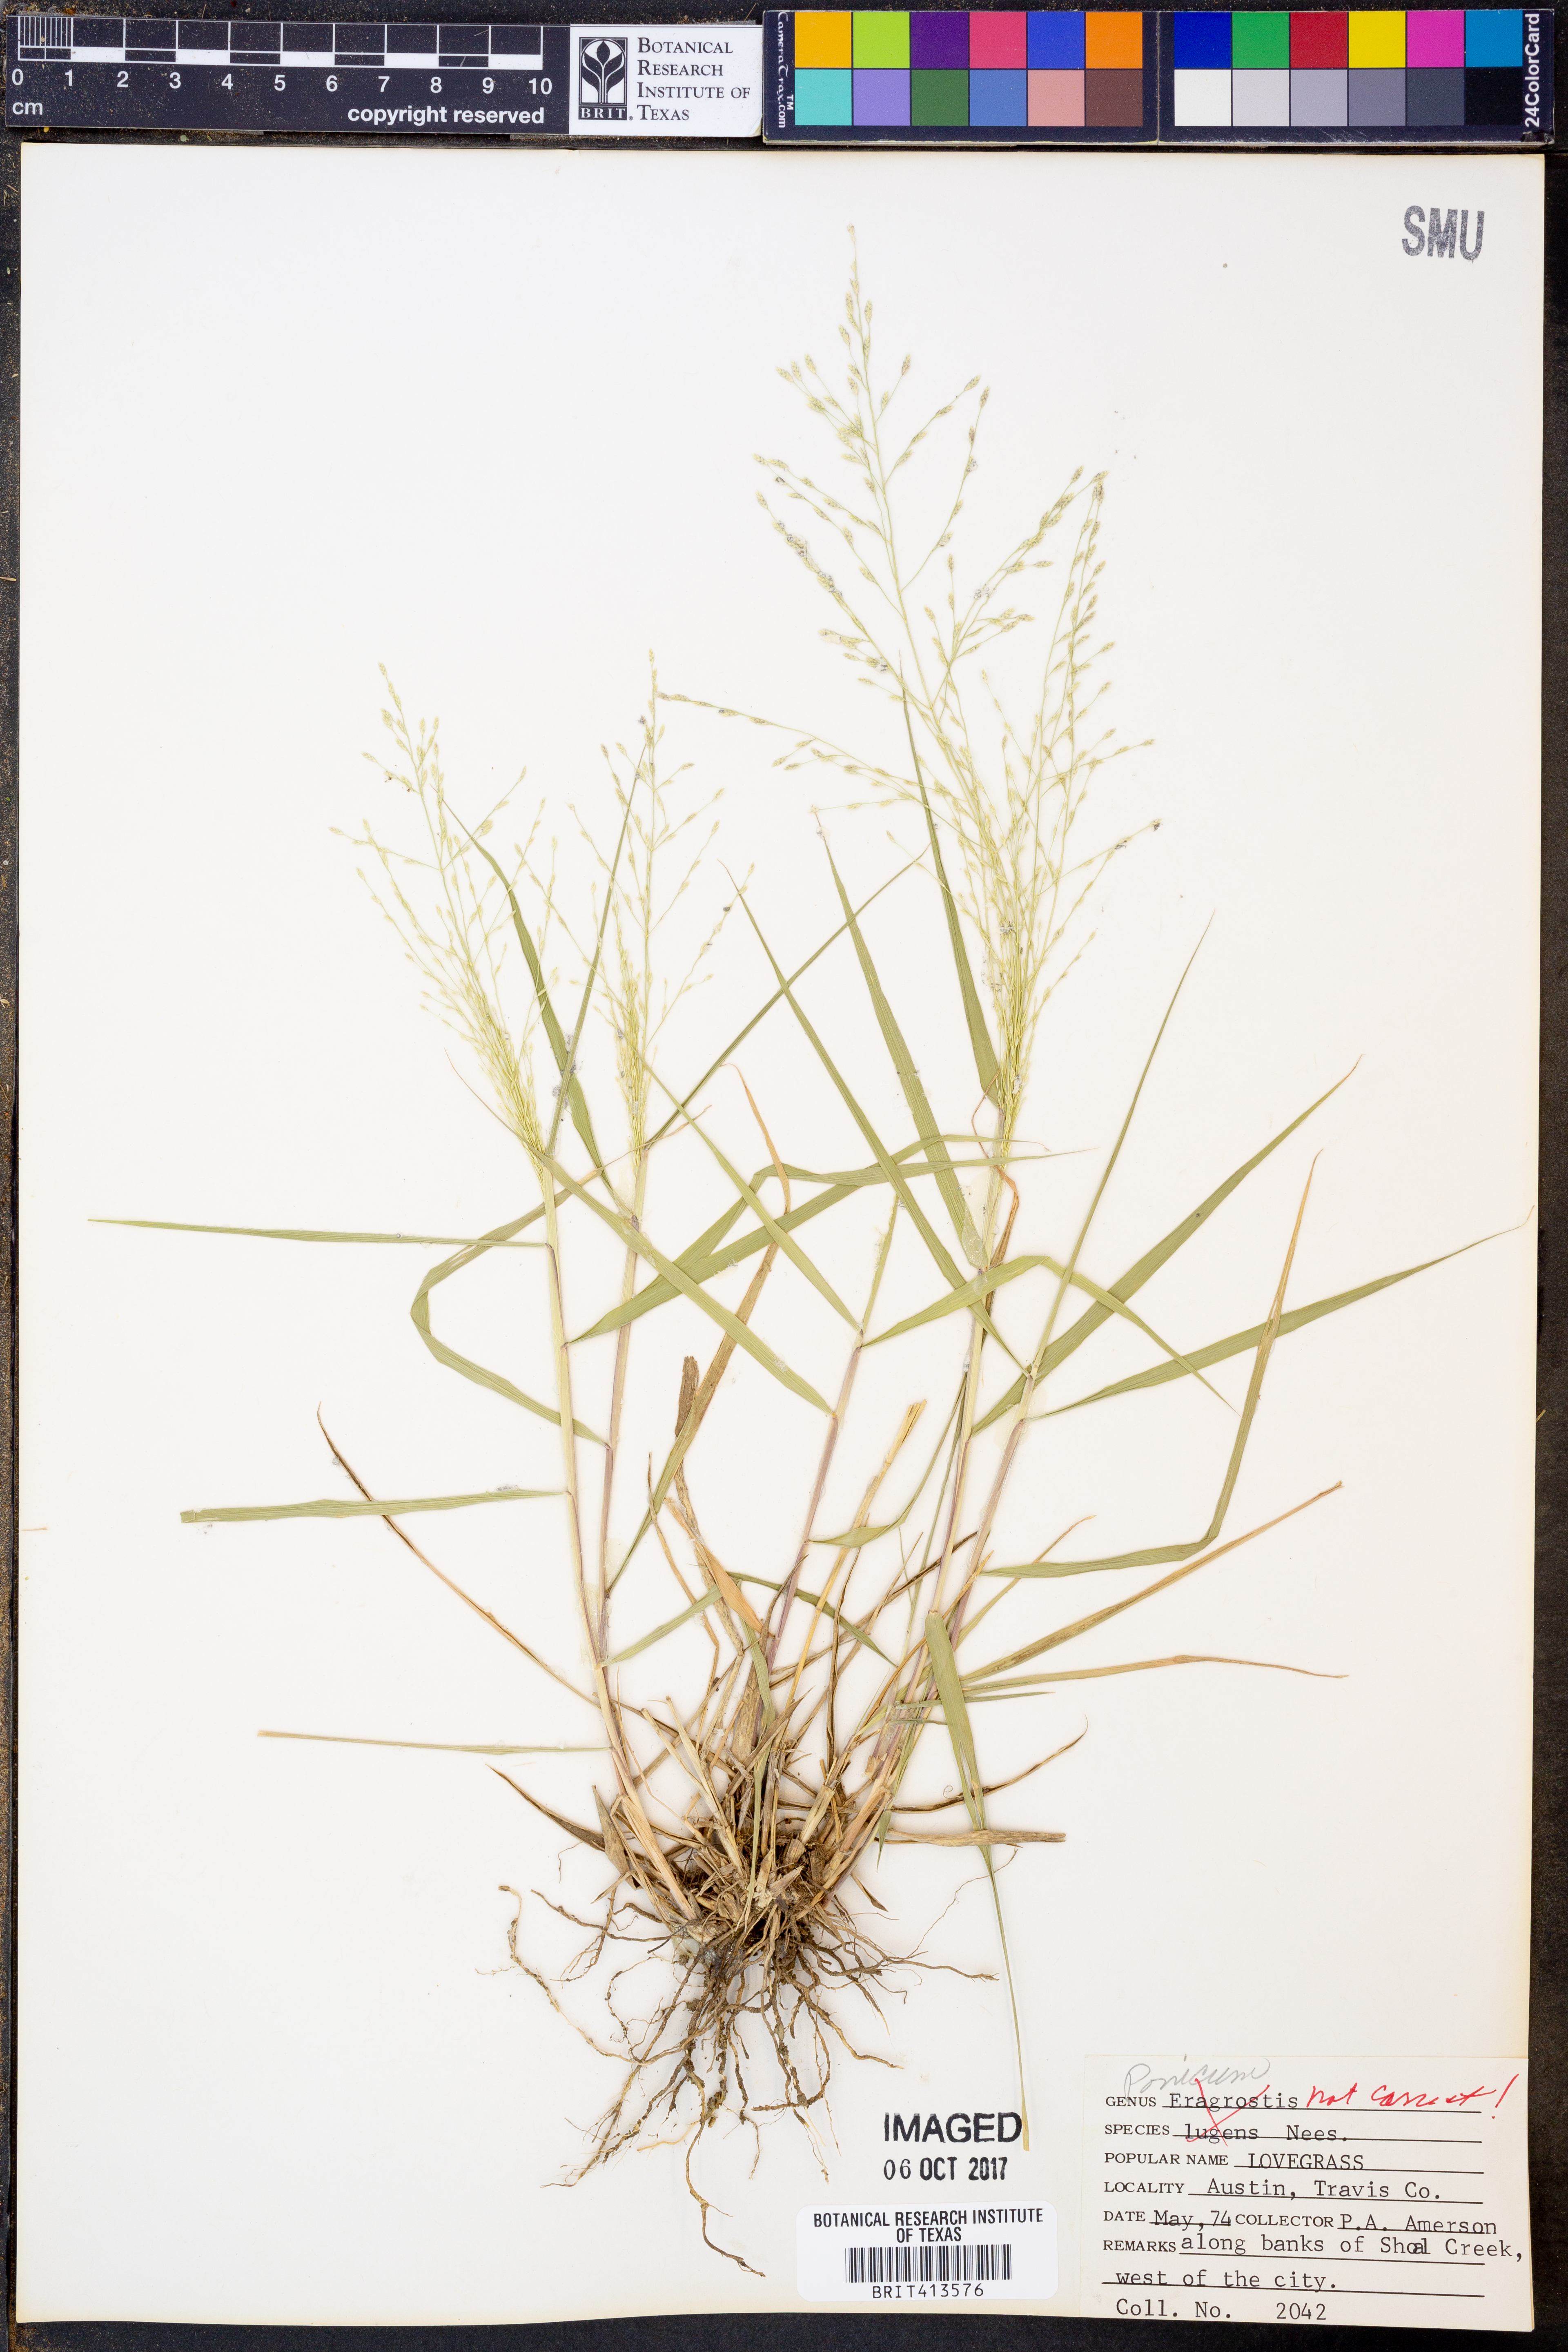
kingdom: Plantae
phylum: Tracheophyta
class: Liliopsida
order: Poales
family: Poaceae
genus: Panicum
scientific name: Panicum
